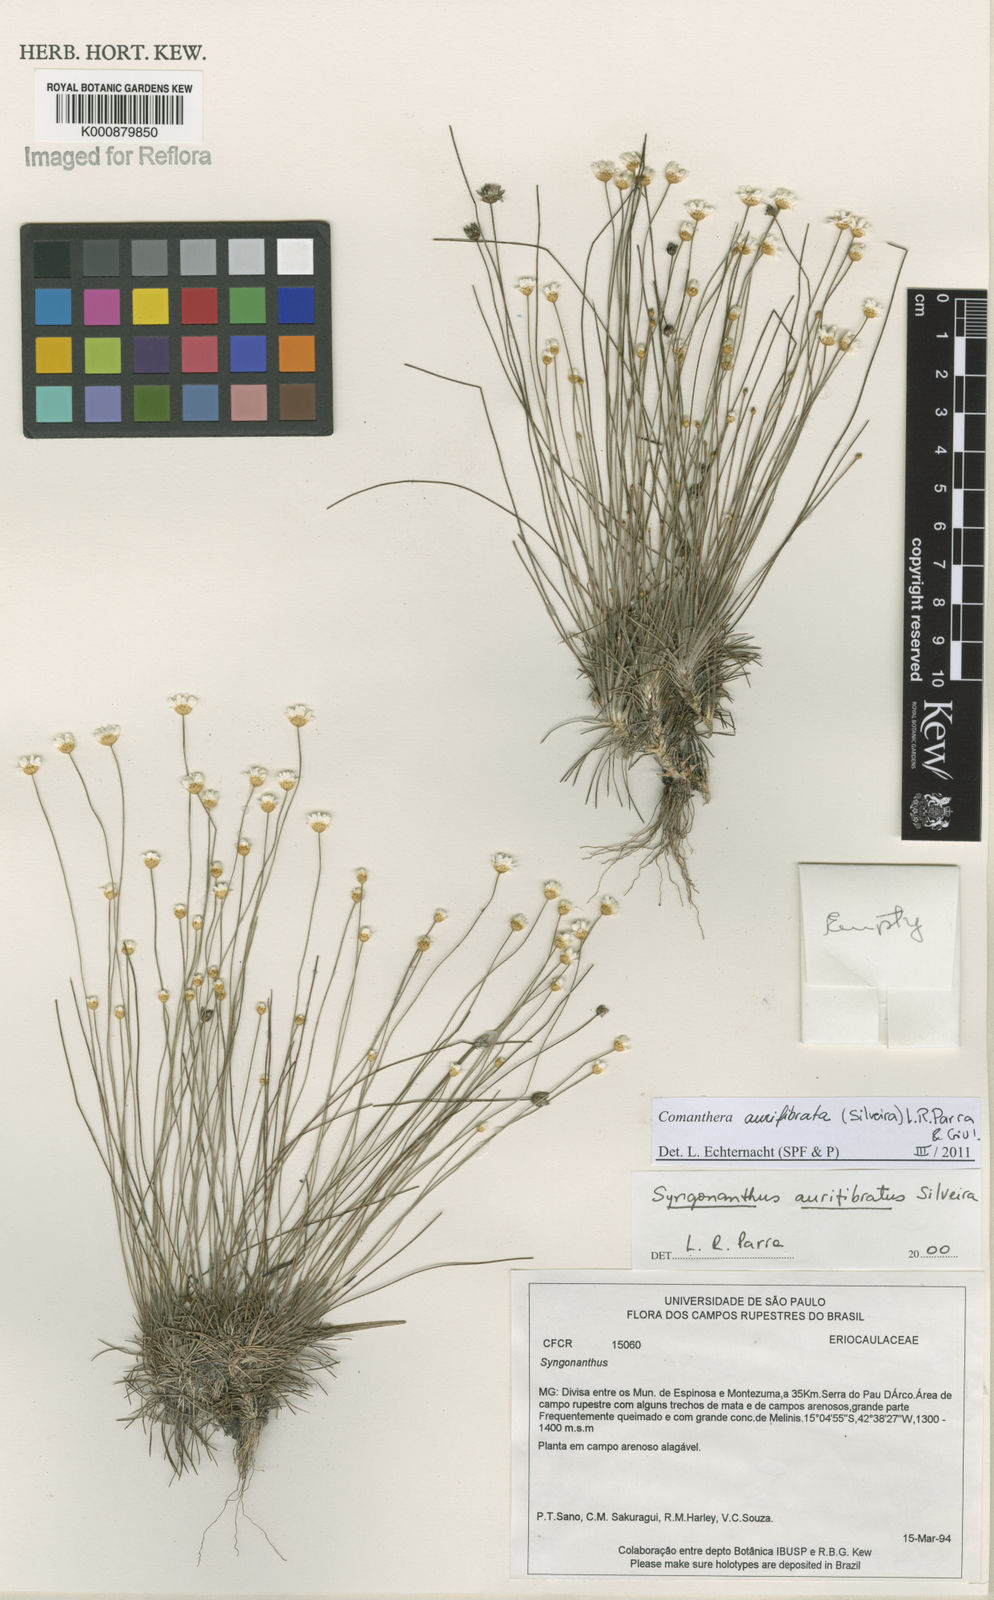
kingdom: Plantae
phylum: Tracheophyta
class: Liliopsida
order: Poales
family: Eriocaulaceae
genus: Comanthera
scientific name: Comanthera aurifibrata
